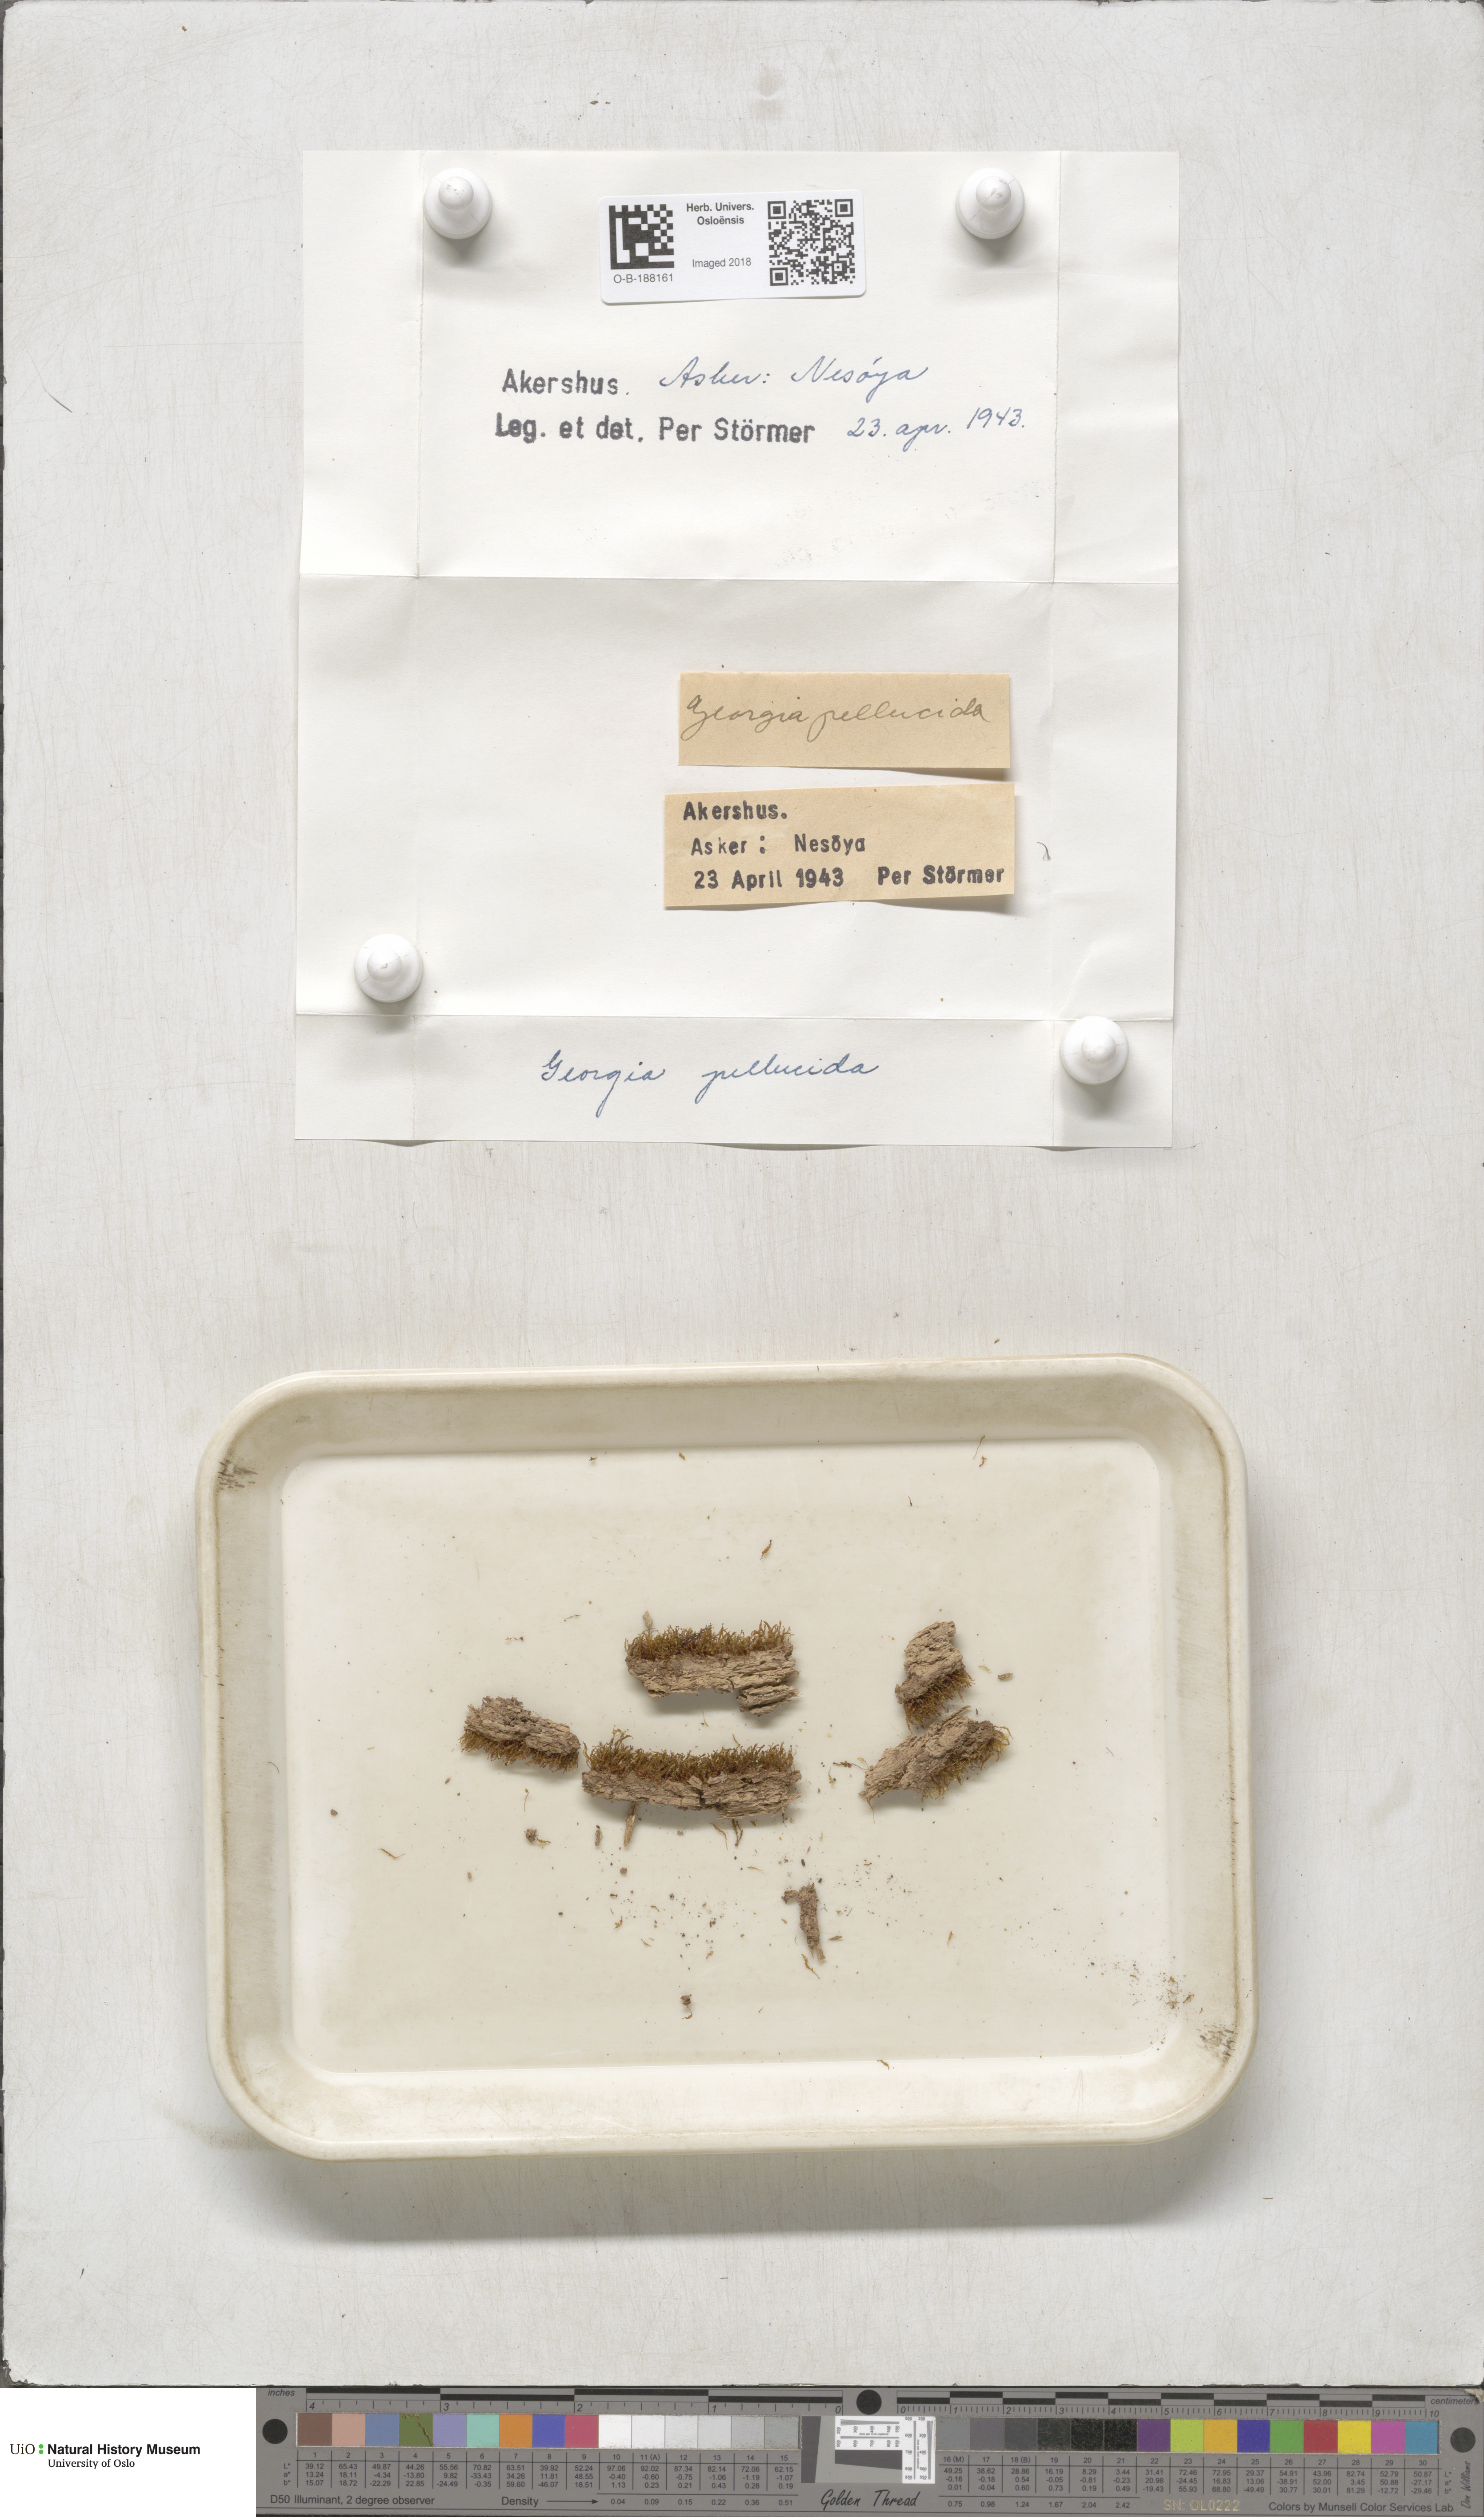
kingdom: Plantae
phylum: Bryophyta
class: Polytrichopsida
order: Tetraphidales
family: Tetraphidaceae
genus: Tetraphis
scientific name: Tetraphis pellucida
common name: Common four-toothed moss
